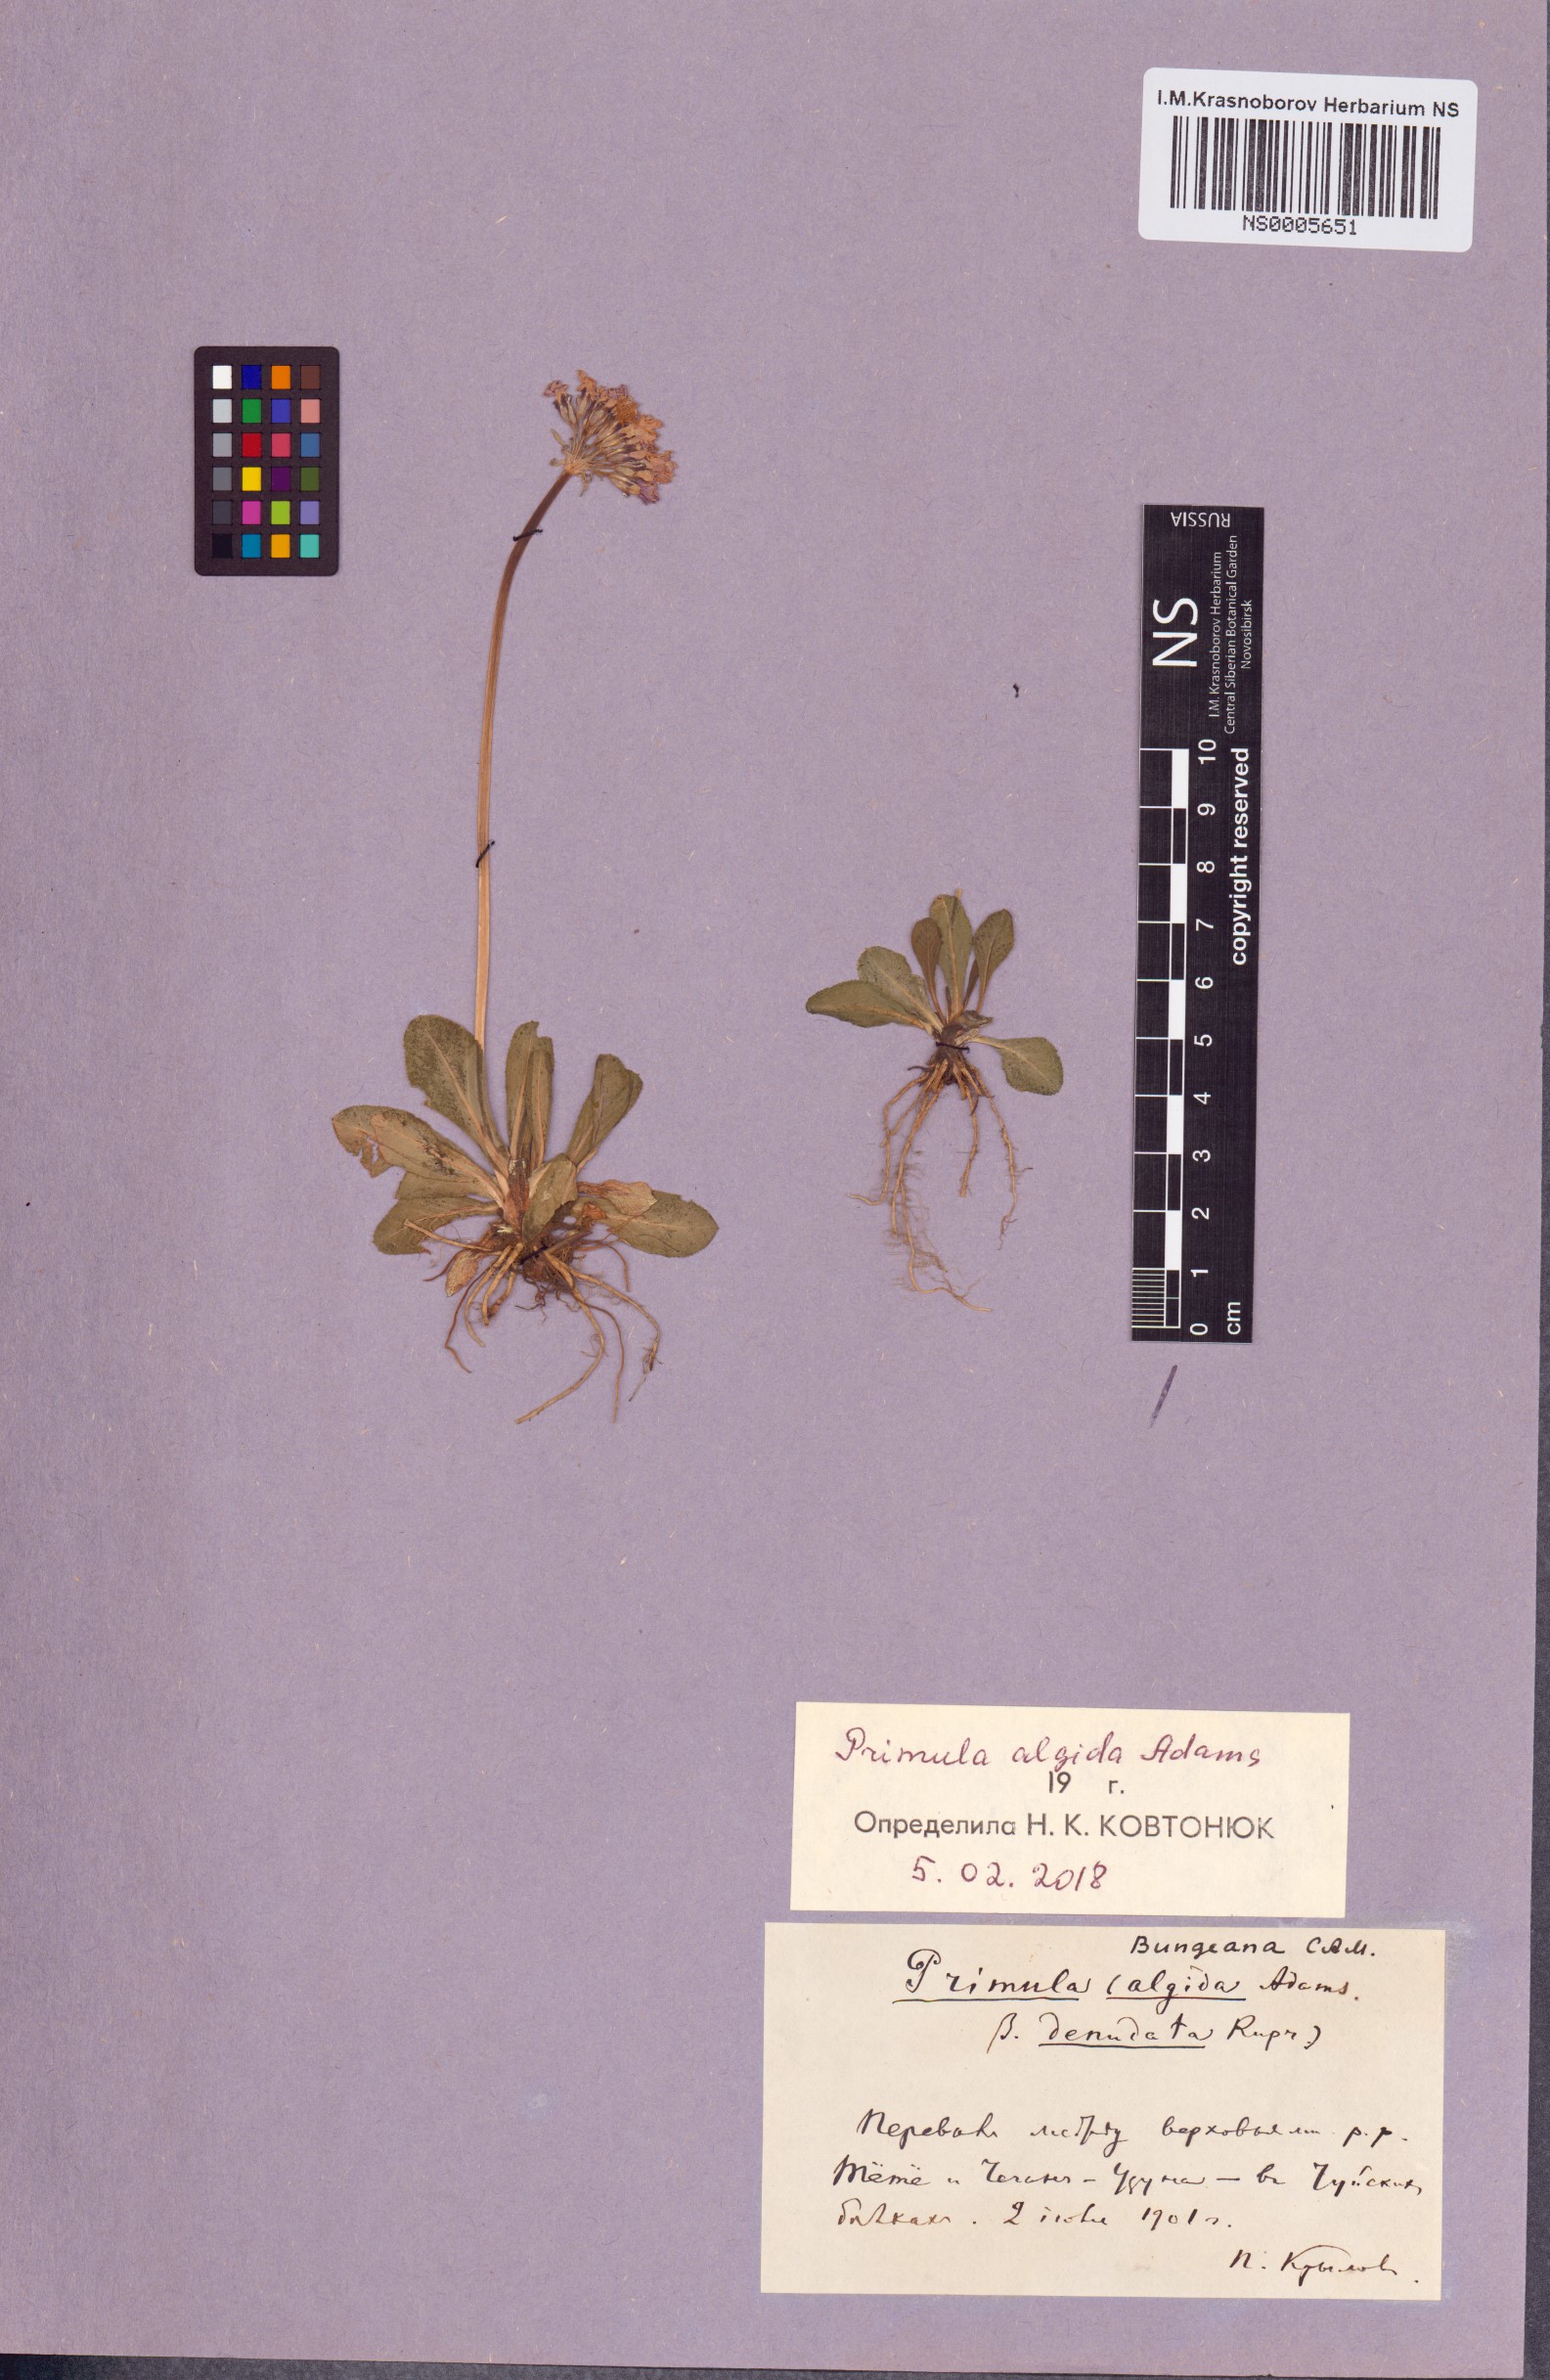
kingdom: Plantae
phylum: Tracheophyta
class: Magnoliopsida
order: Ericales
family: Primulaceae
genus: Primula
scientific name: Primula algida
